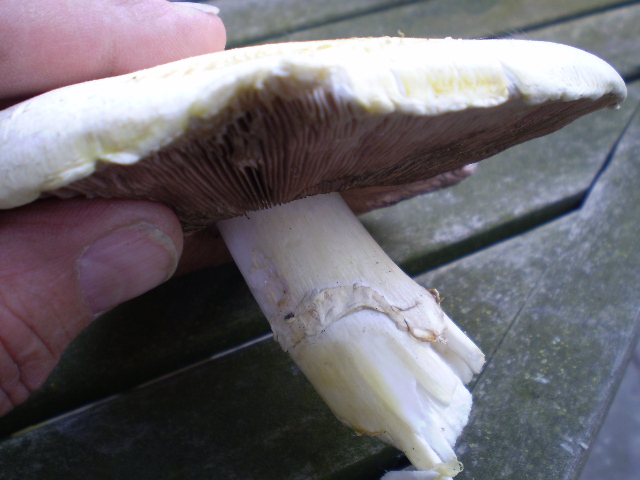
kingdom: Fungi
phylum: Basidiomycota
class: Agaricomycetes
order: Agaricales
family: Agaricaceae
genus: Agaricus
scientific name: Agaricus xanthodermus
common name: karbol-champignon
